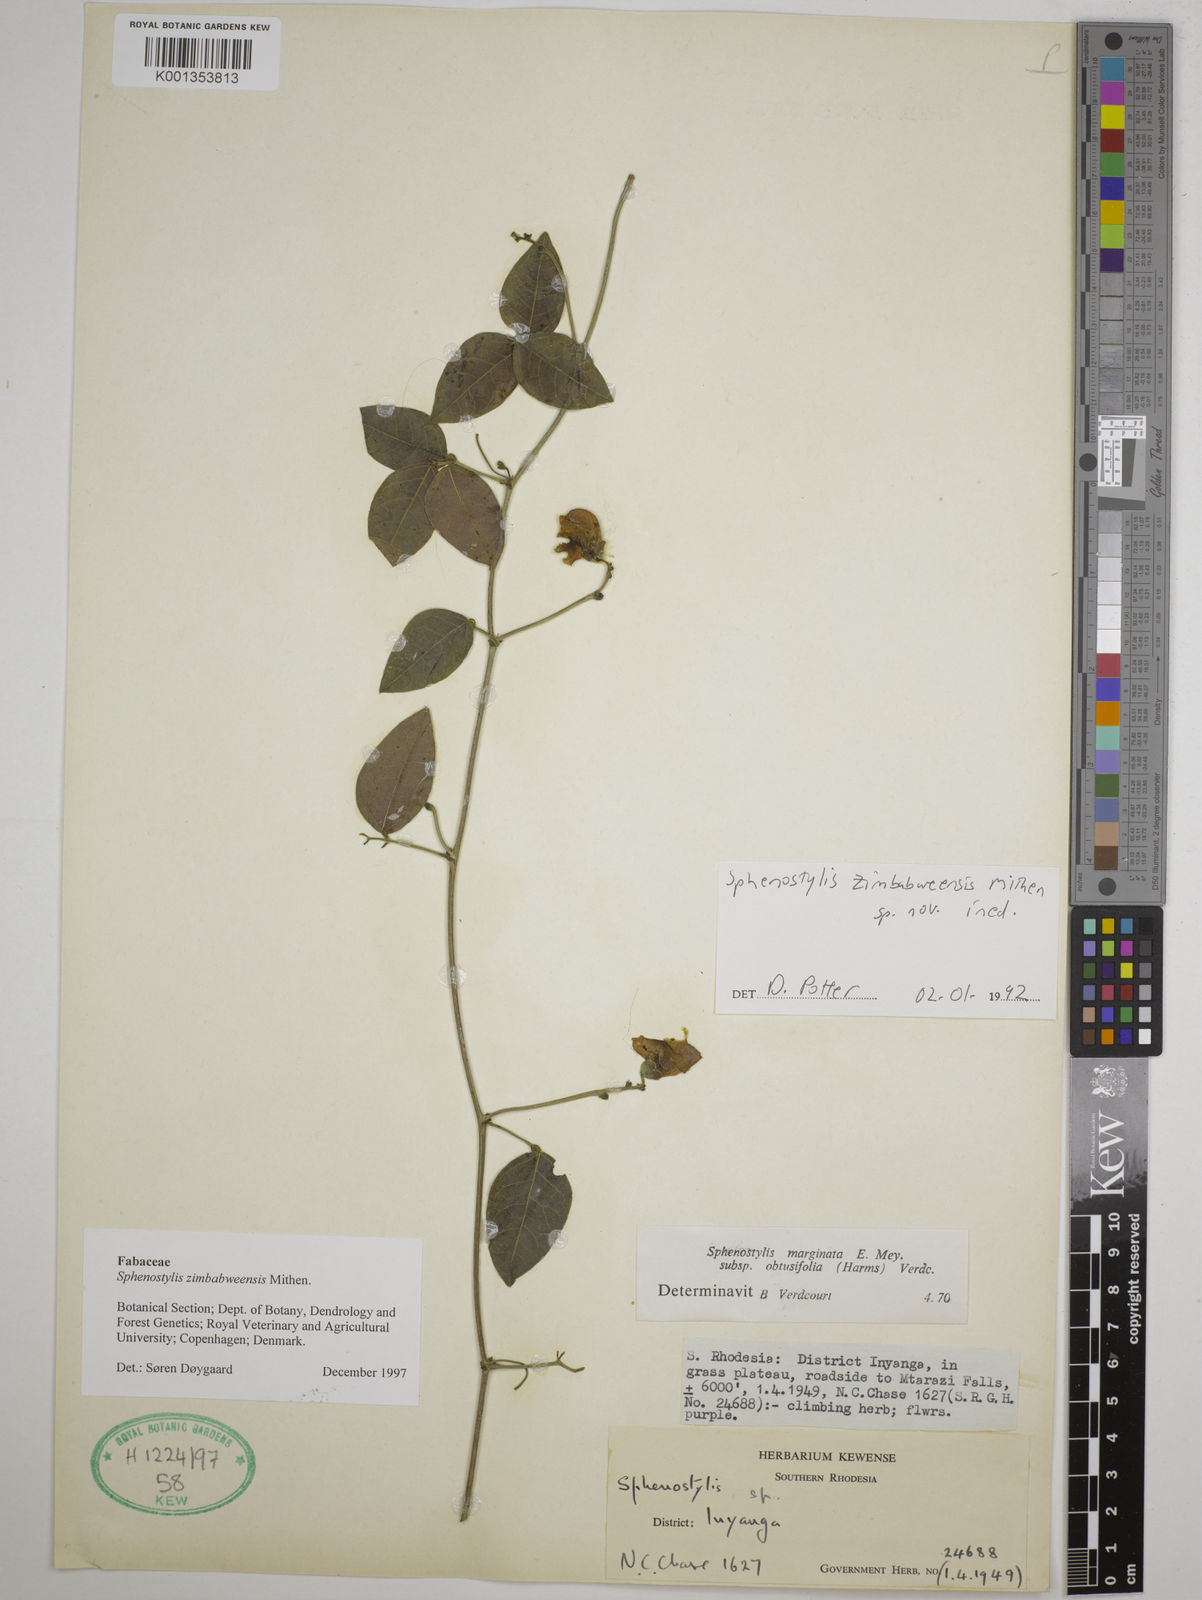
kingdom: Plantae
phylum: Tracheophyta
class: Magnoliopsida
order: Fabales
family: Fabaceae
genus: Sphenostylis
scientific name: Sphenostylis zimbabweensis
